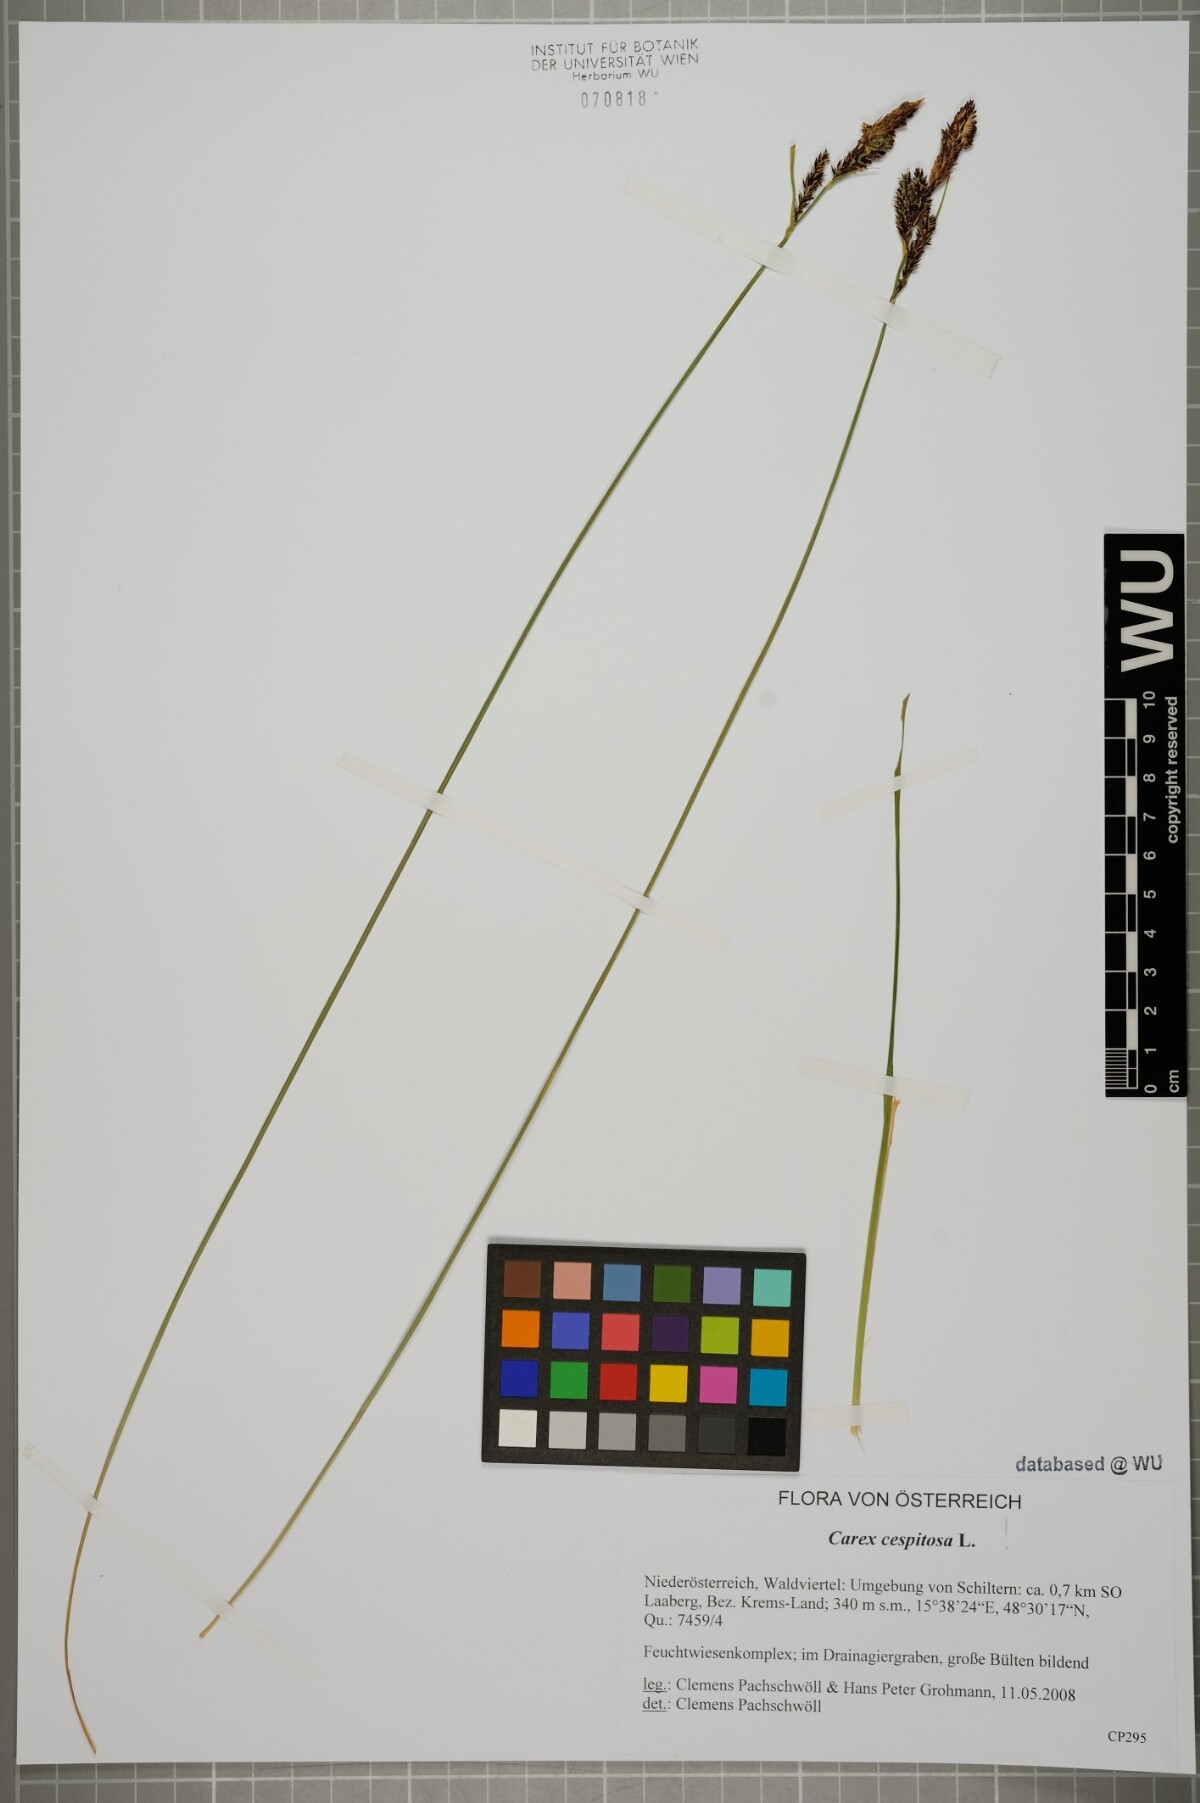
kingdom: Plantae
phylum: Tracheophyta
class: Liliopsida
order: Poales
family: Cyperaceae
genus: Carex
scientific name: Carex cespitosa
